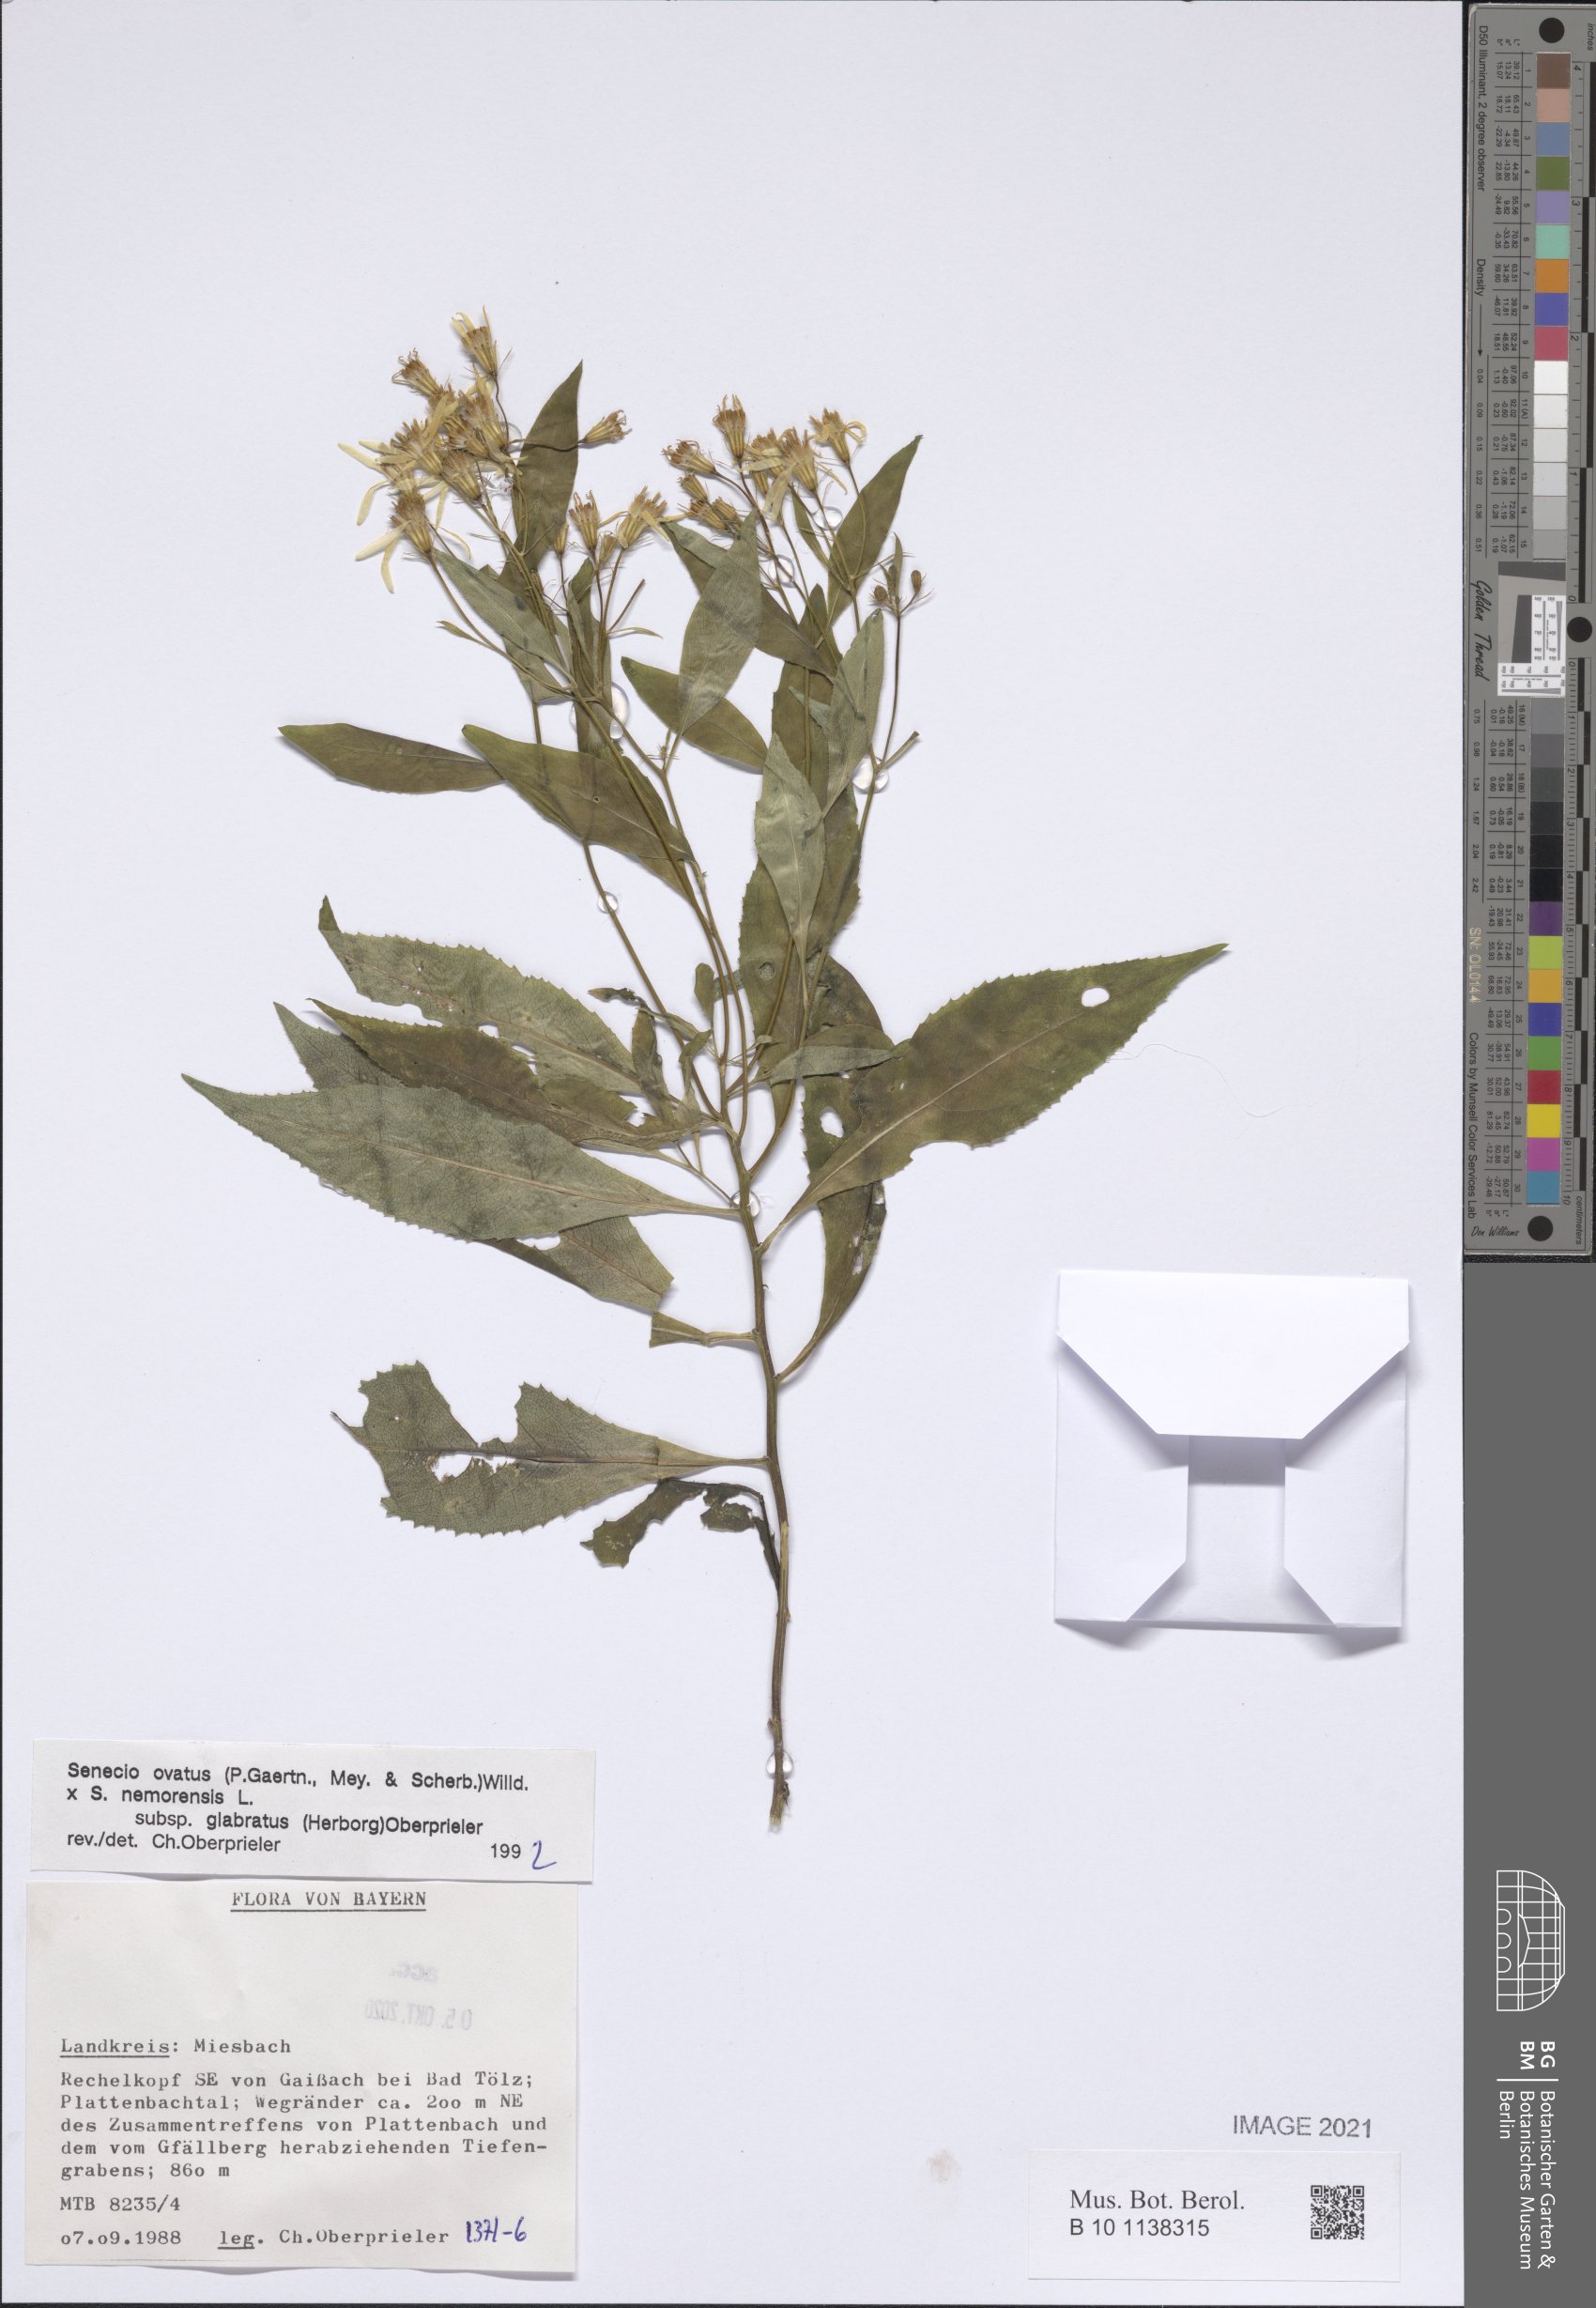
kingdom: Plantae
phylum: Tracheophyta
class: Magnoliopsida
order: Asterales
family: Asteraceae
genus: Senecio
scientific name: Senecio ovatus
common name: Wood ragwort
